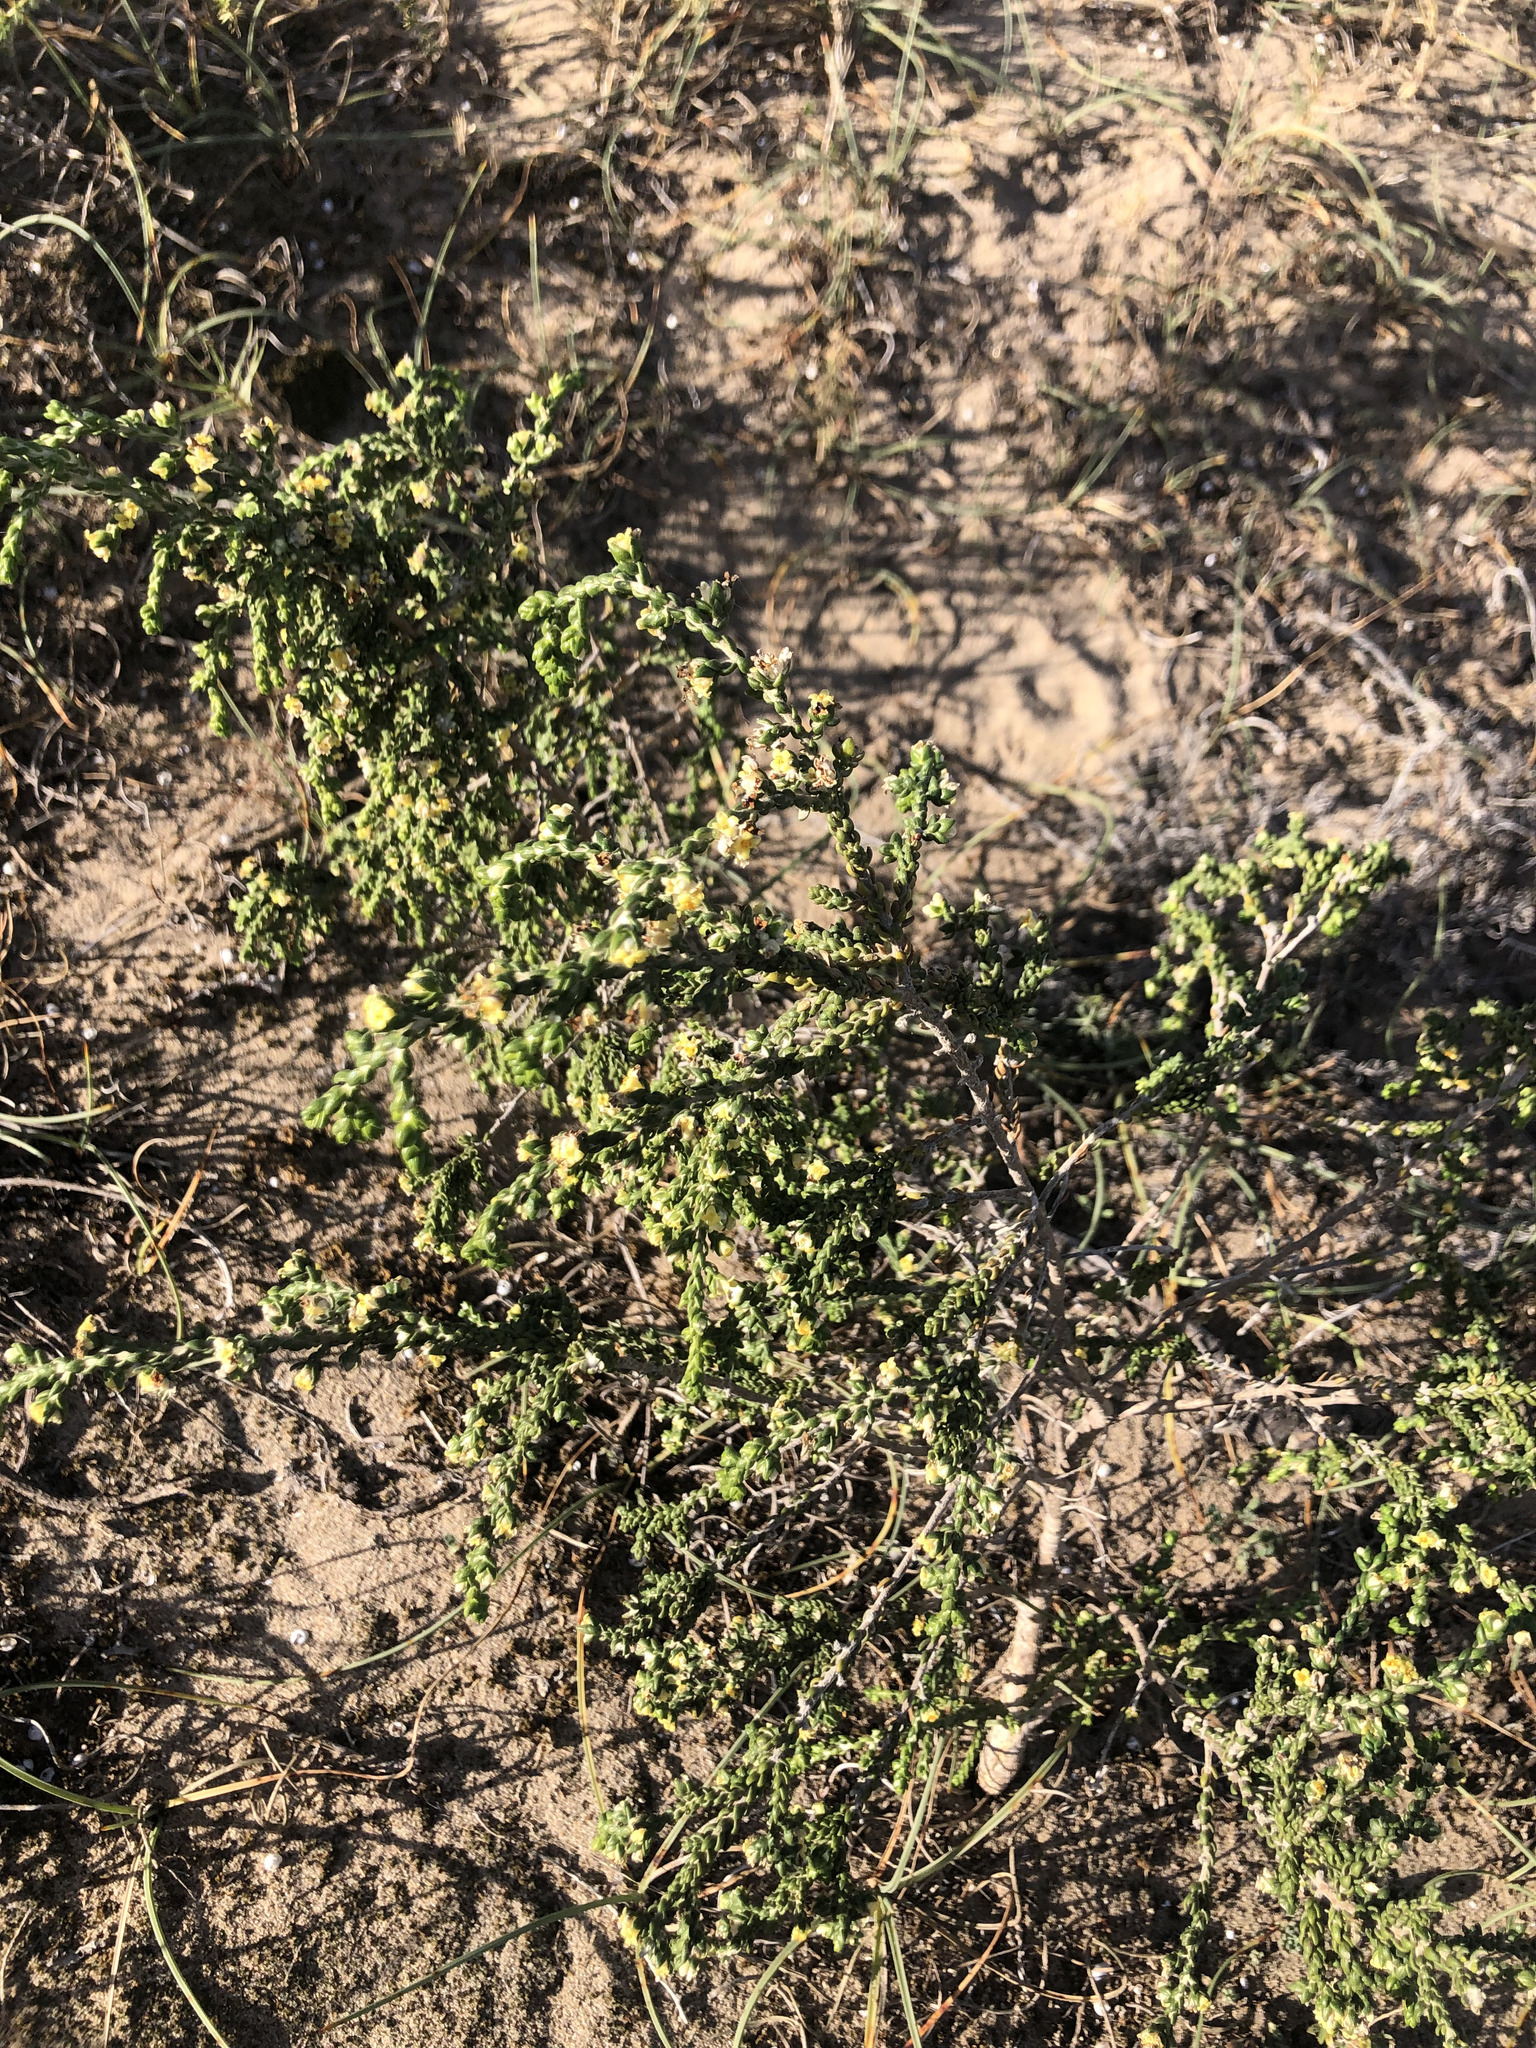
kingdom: Plantae
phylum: Tracheophyta
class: Magnoliopsida
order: Malvales
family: Thymelaeaceae
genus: Thymelaea
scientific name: Thymelaea hirsuta
